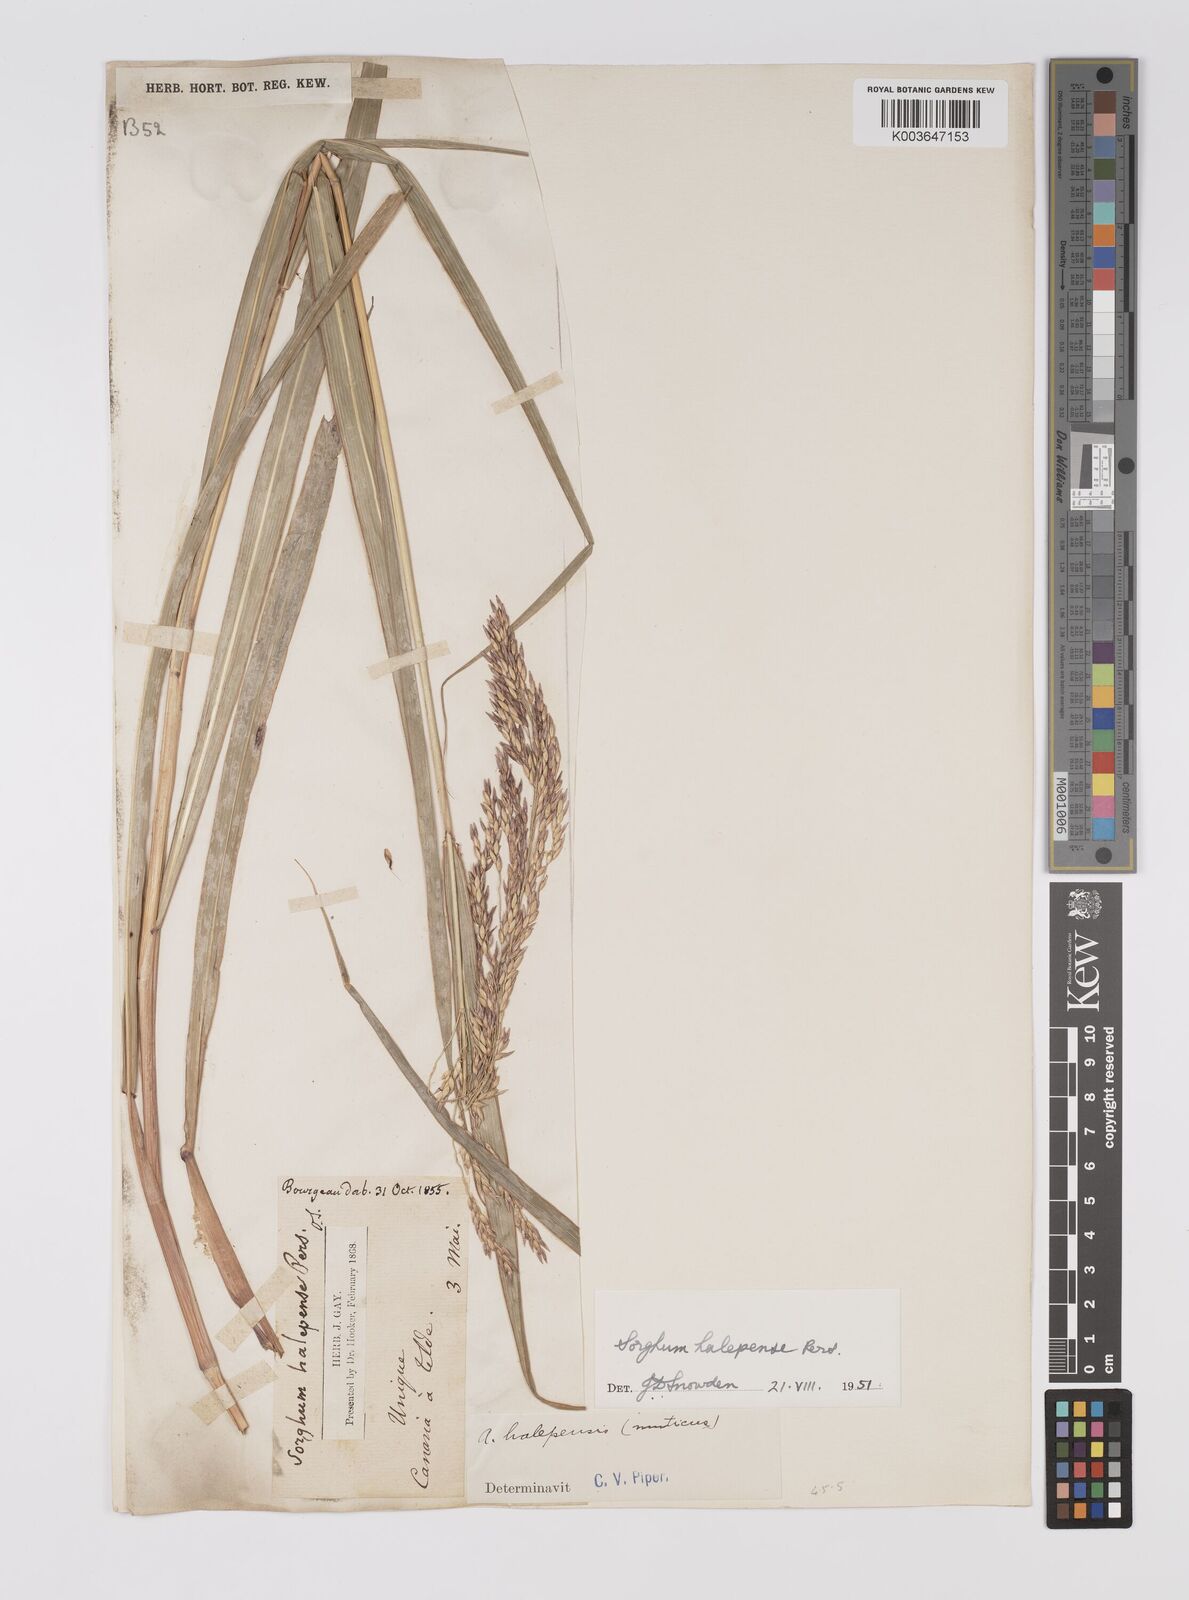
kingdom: Plantae
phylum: Tracheophyta
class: Liliopsida
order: Poales
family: Poaceae
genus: Sorghum
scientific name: Sorghum halepense
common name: Johnson-grass
